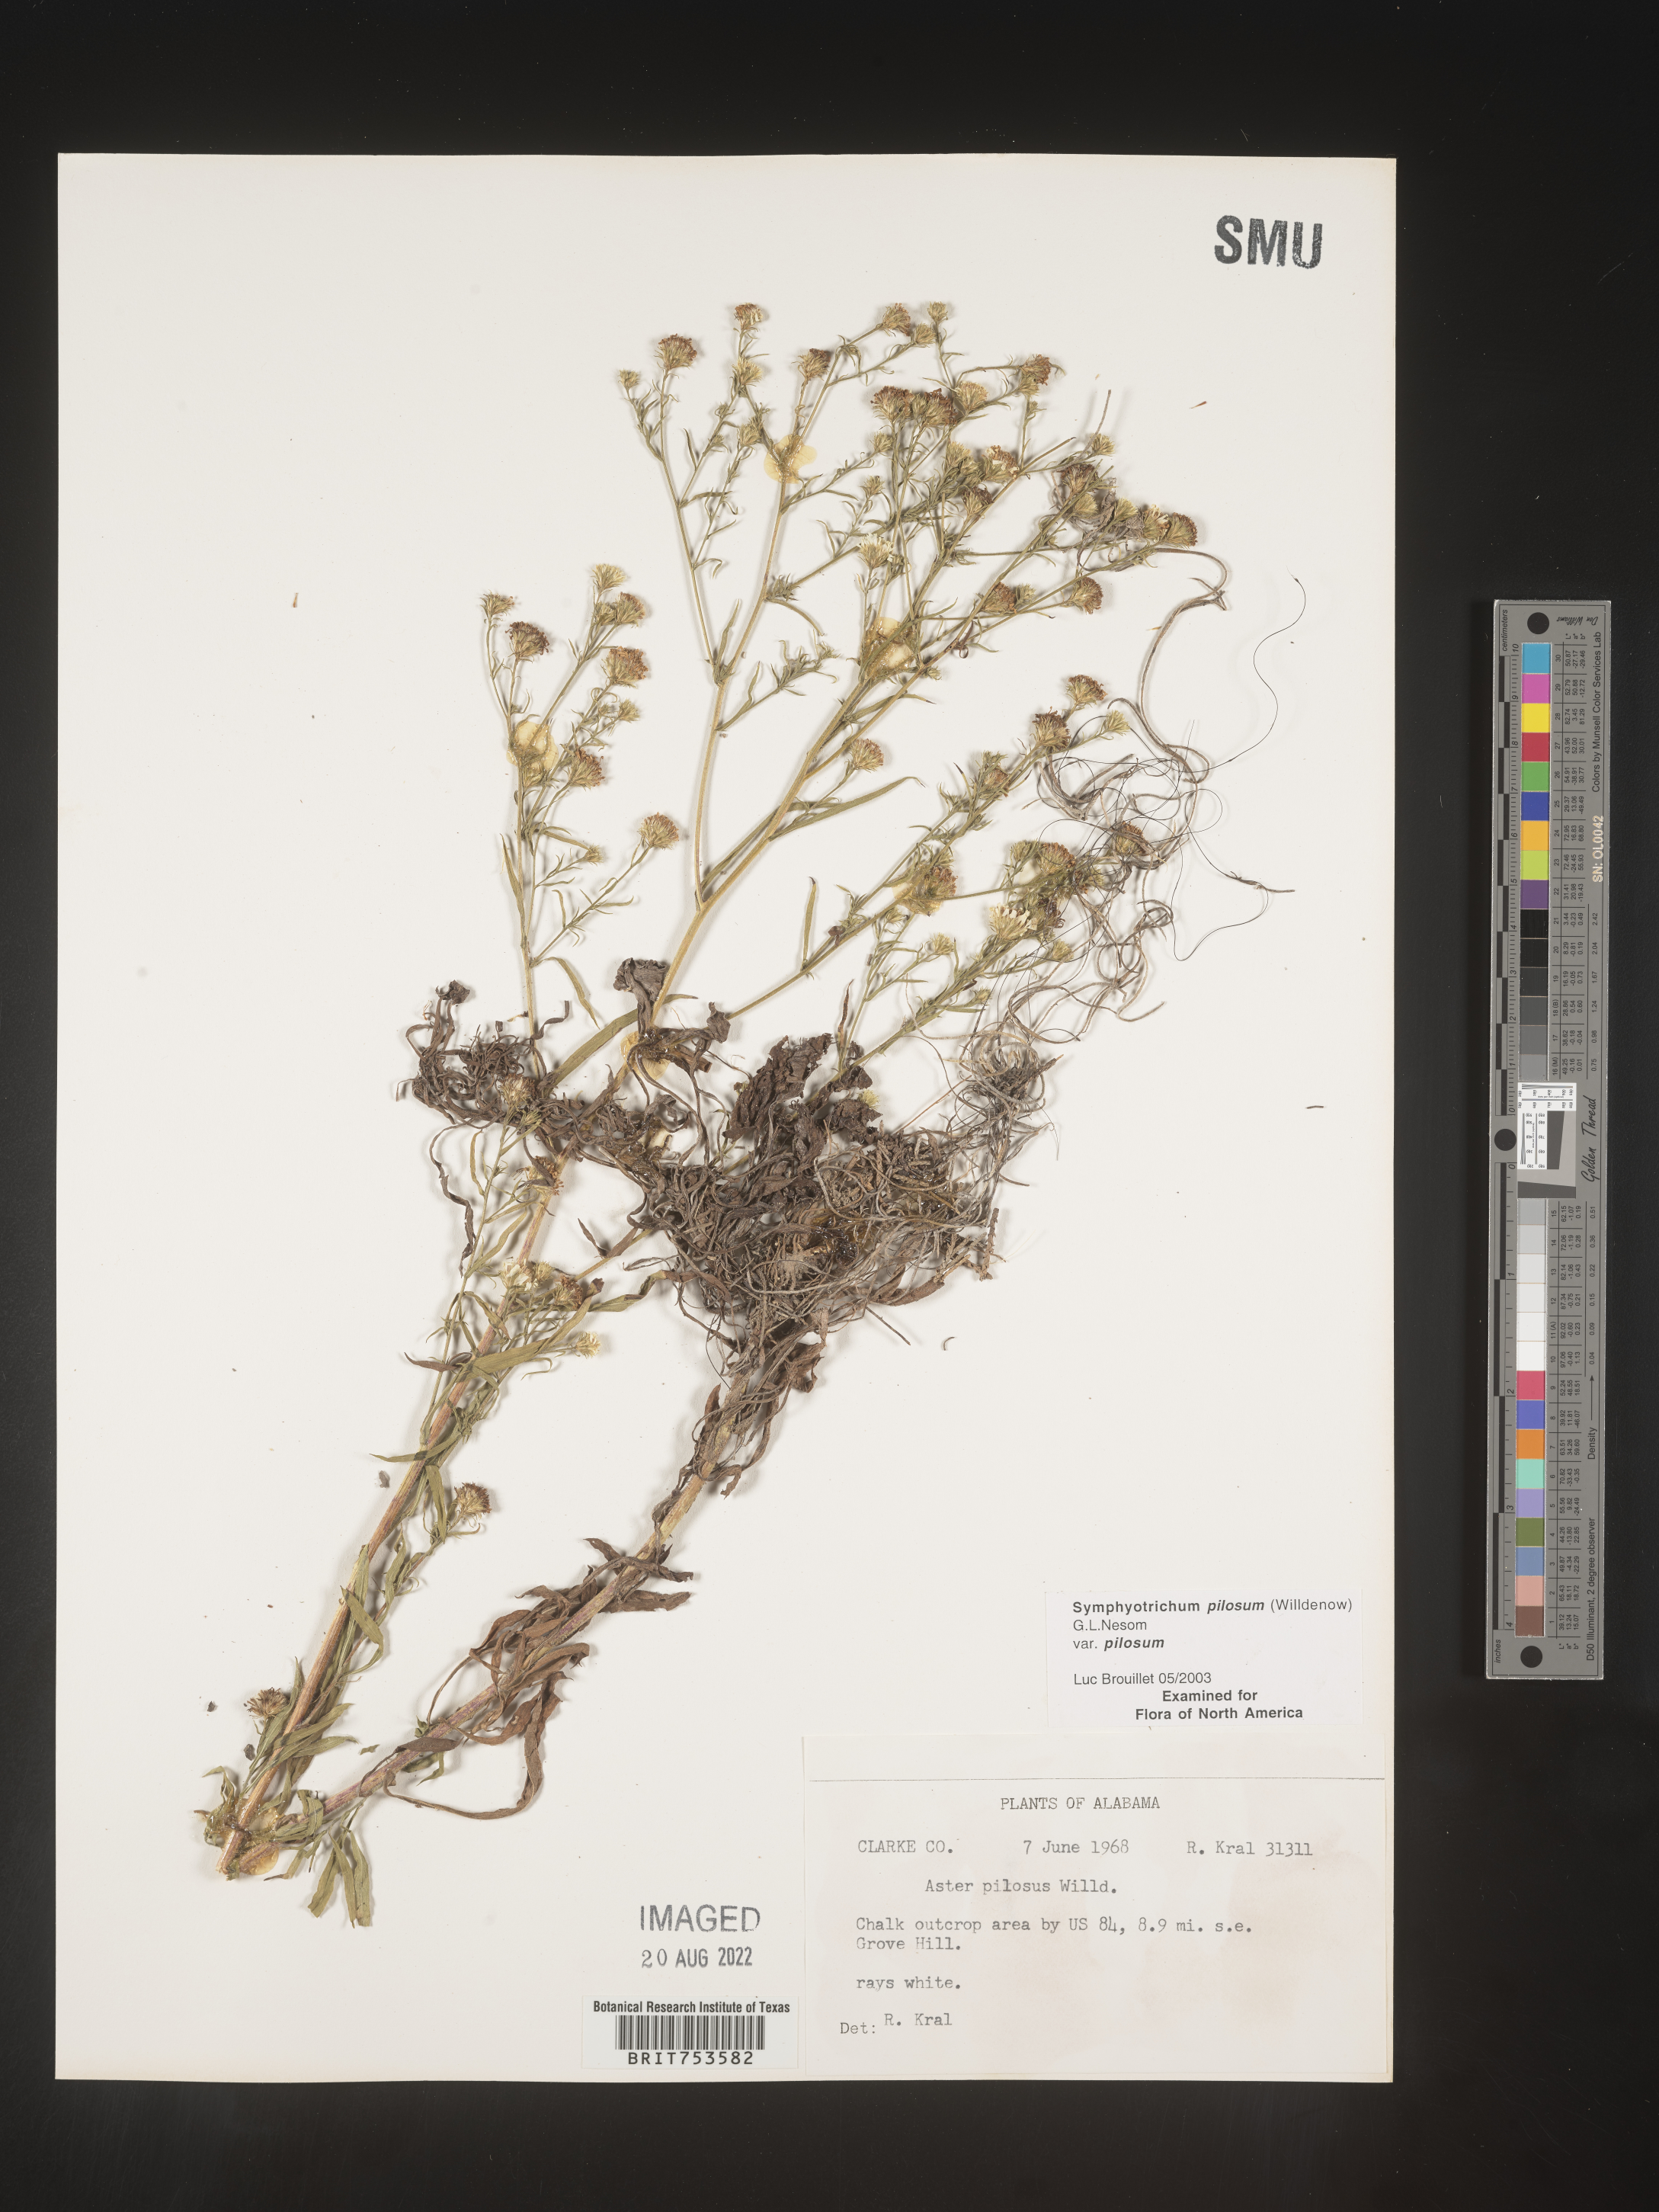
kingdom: Plantae
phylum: Tracheophyta
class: Magnoliopsida
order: Asterales
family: Asteraceae
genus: Symphyotrichum
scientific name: Symphyotrichum pilosum
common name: Awl aster
